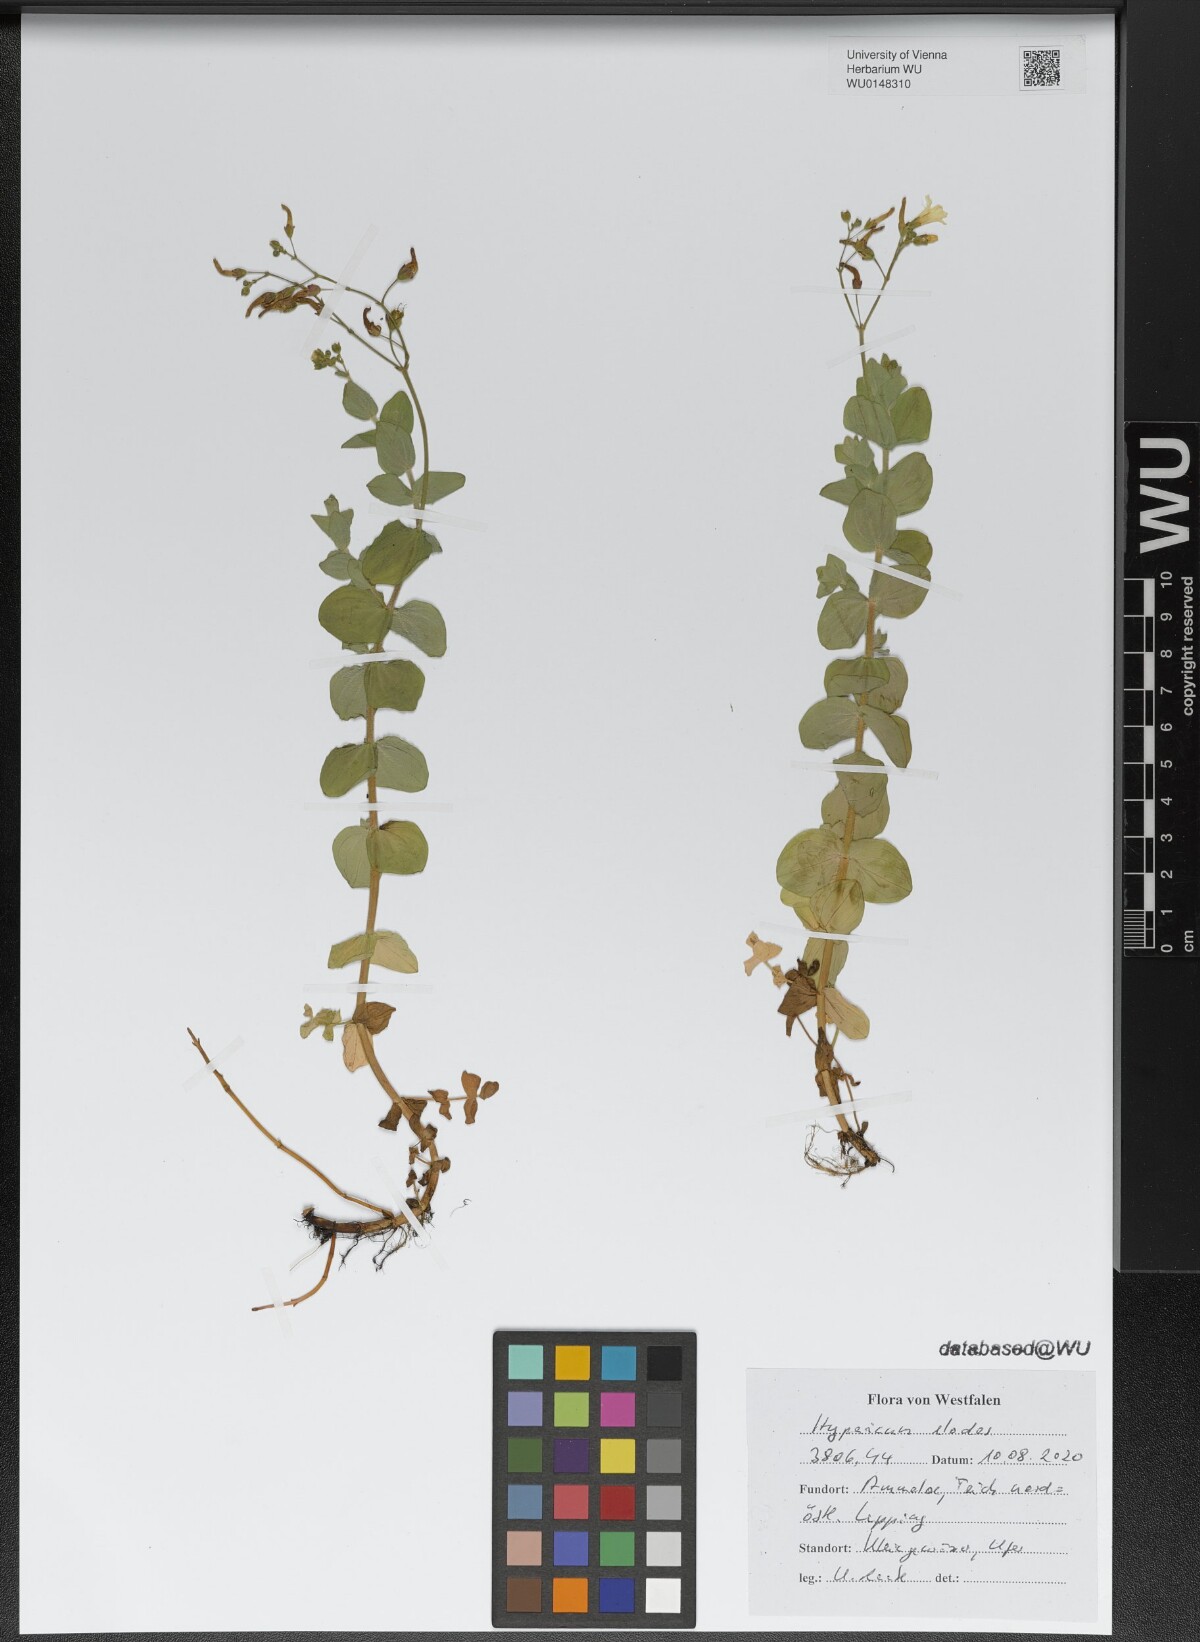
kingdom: Plantae
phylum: Tracheophyta
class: Magnoliopsida
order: Malpighiales
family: Hypericaceae
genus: Hypericum
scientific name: Hypericum elodes
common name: Marsh st. john's-wort
